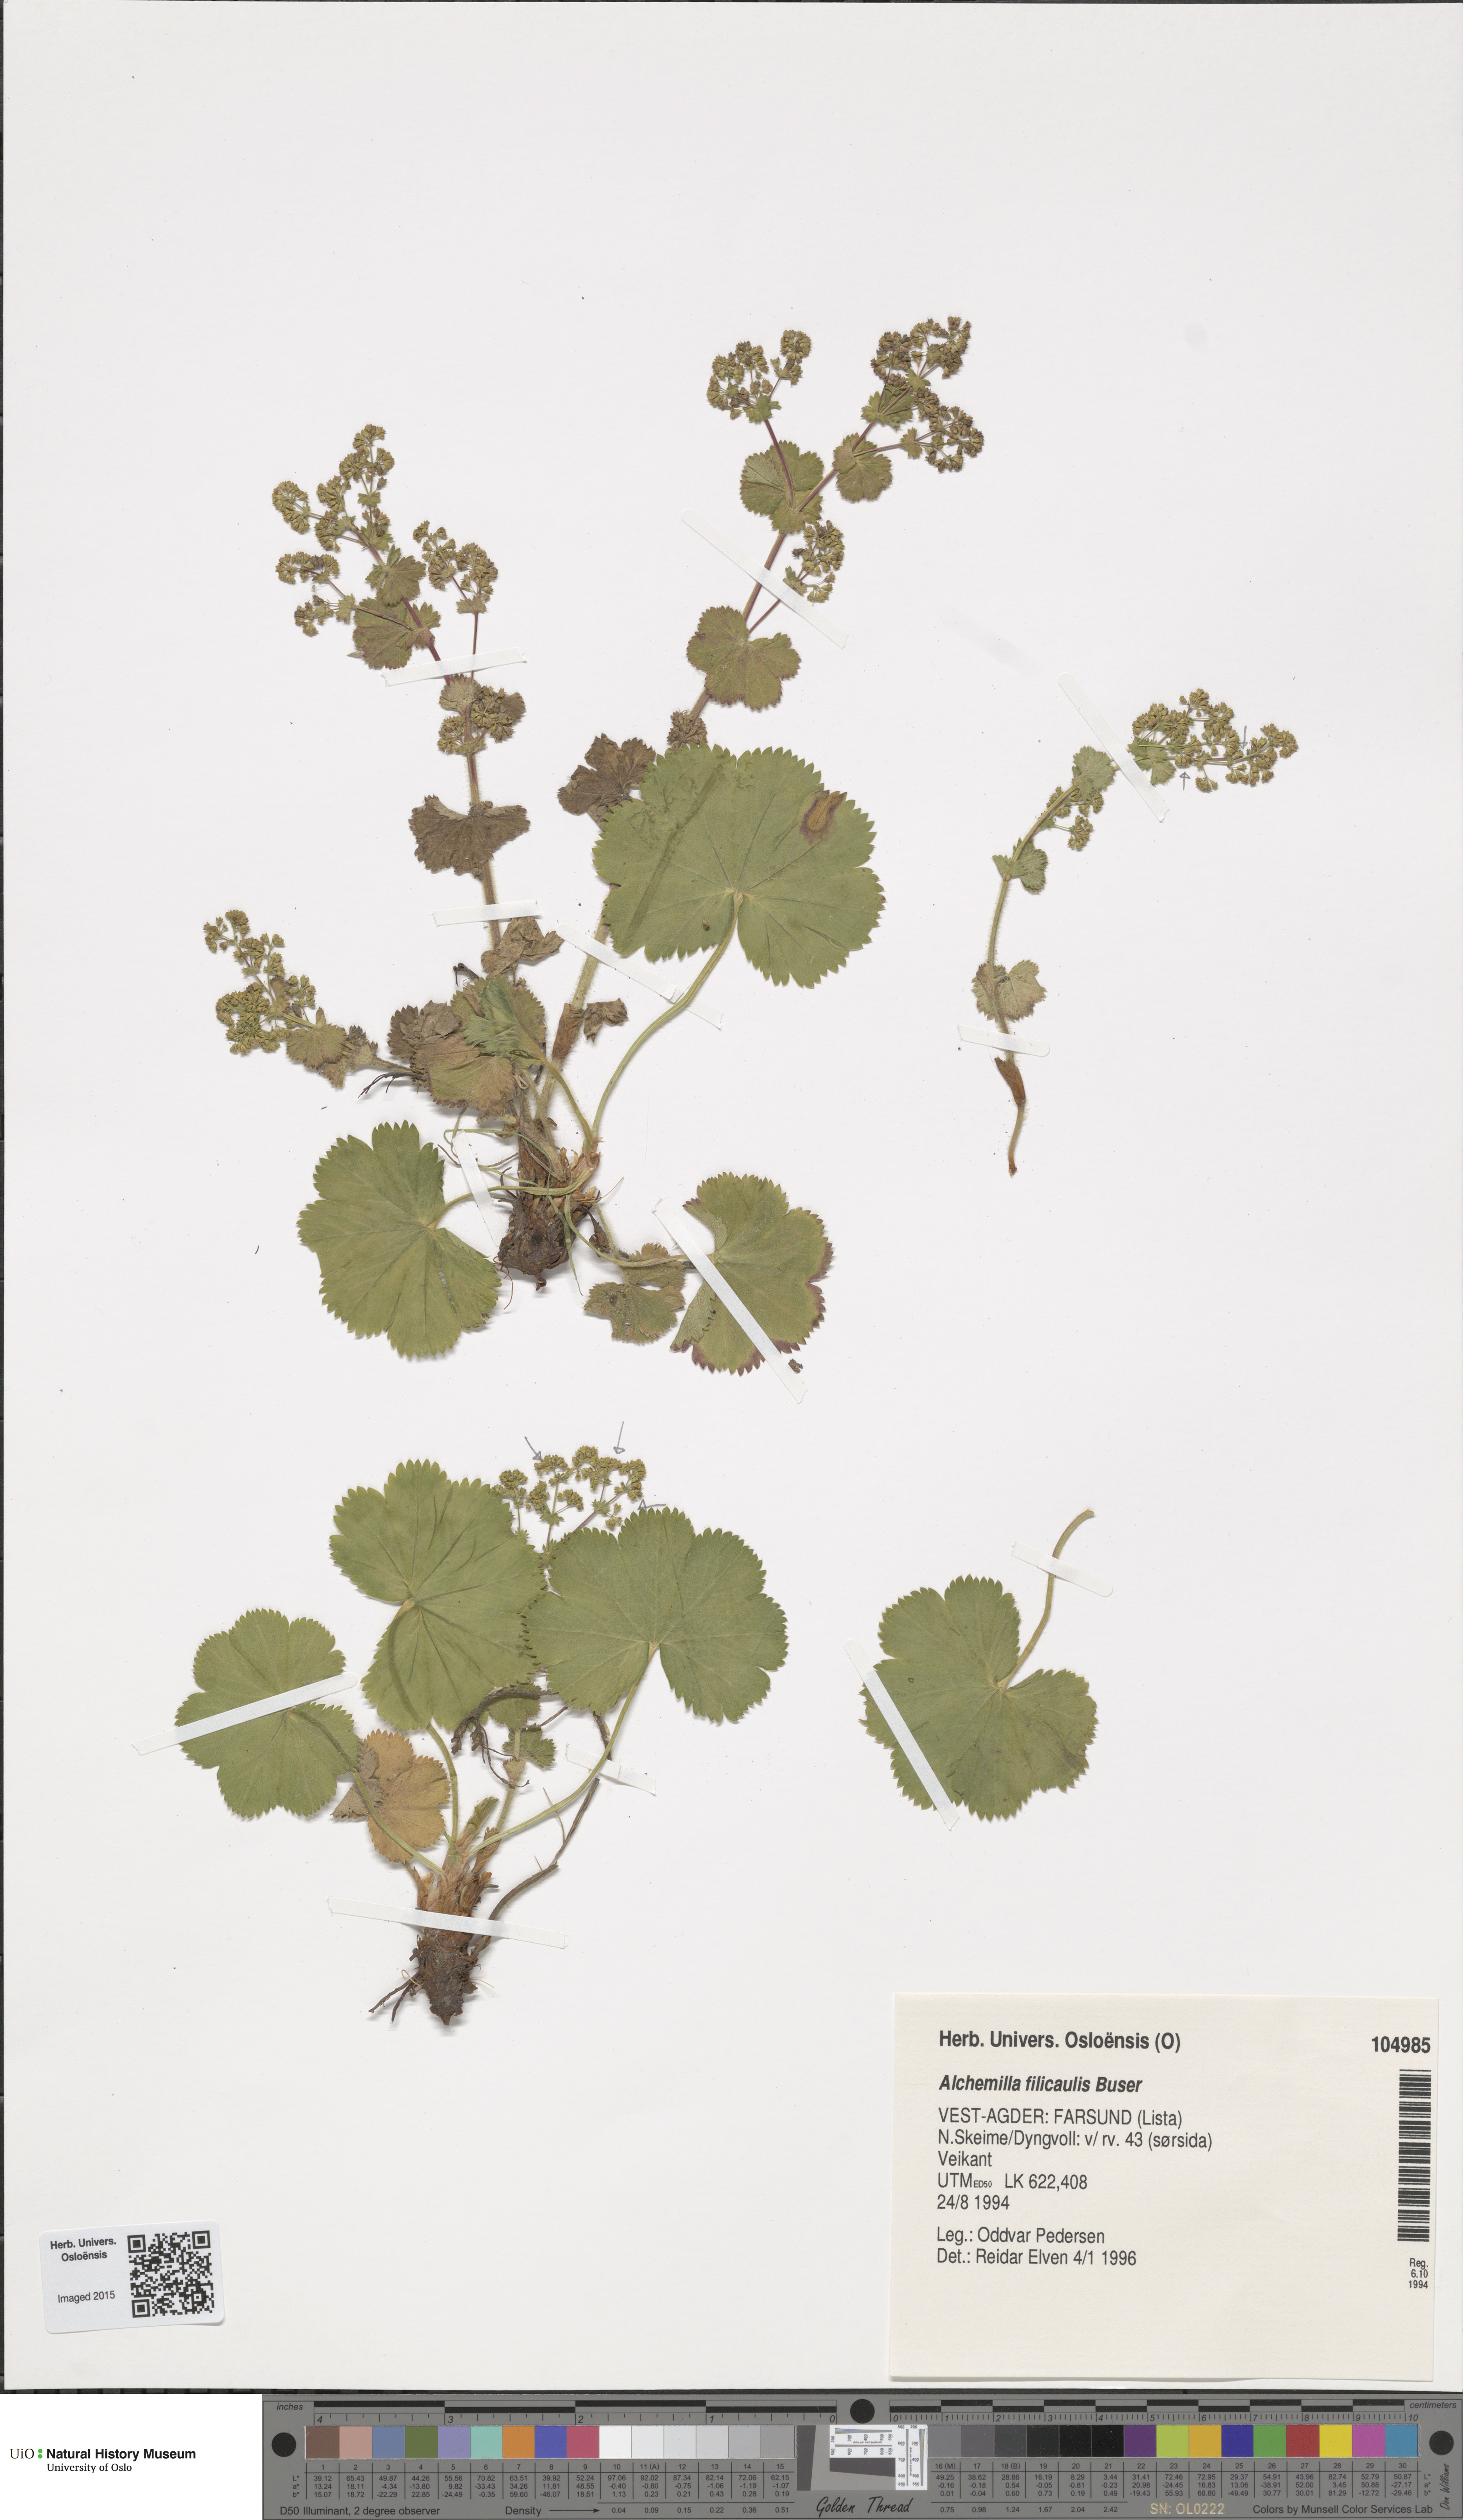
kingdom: Plantae
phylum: Tracheophyta
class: Magnoliopsida
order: Rosales
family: Rosaceae
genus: Alchemilla
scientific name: Alchemilla filicaulis
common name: Hairy lady's-mantle
